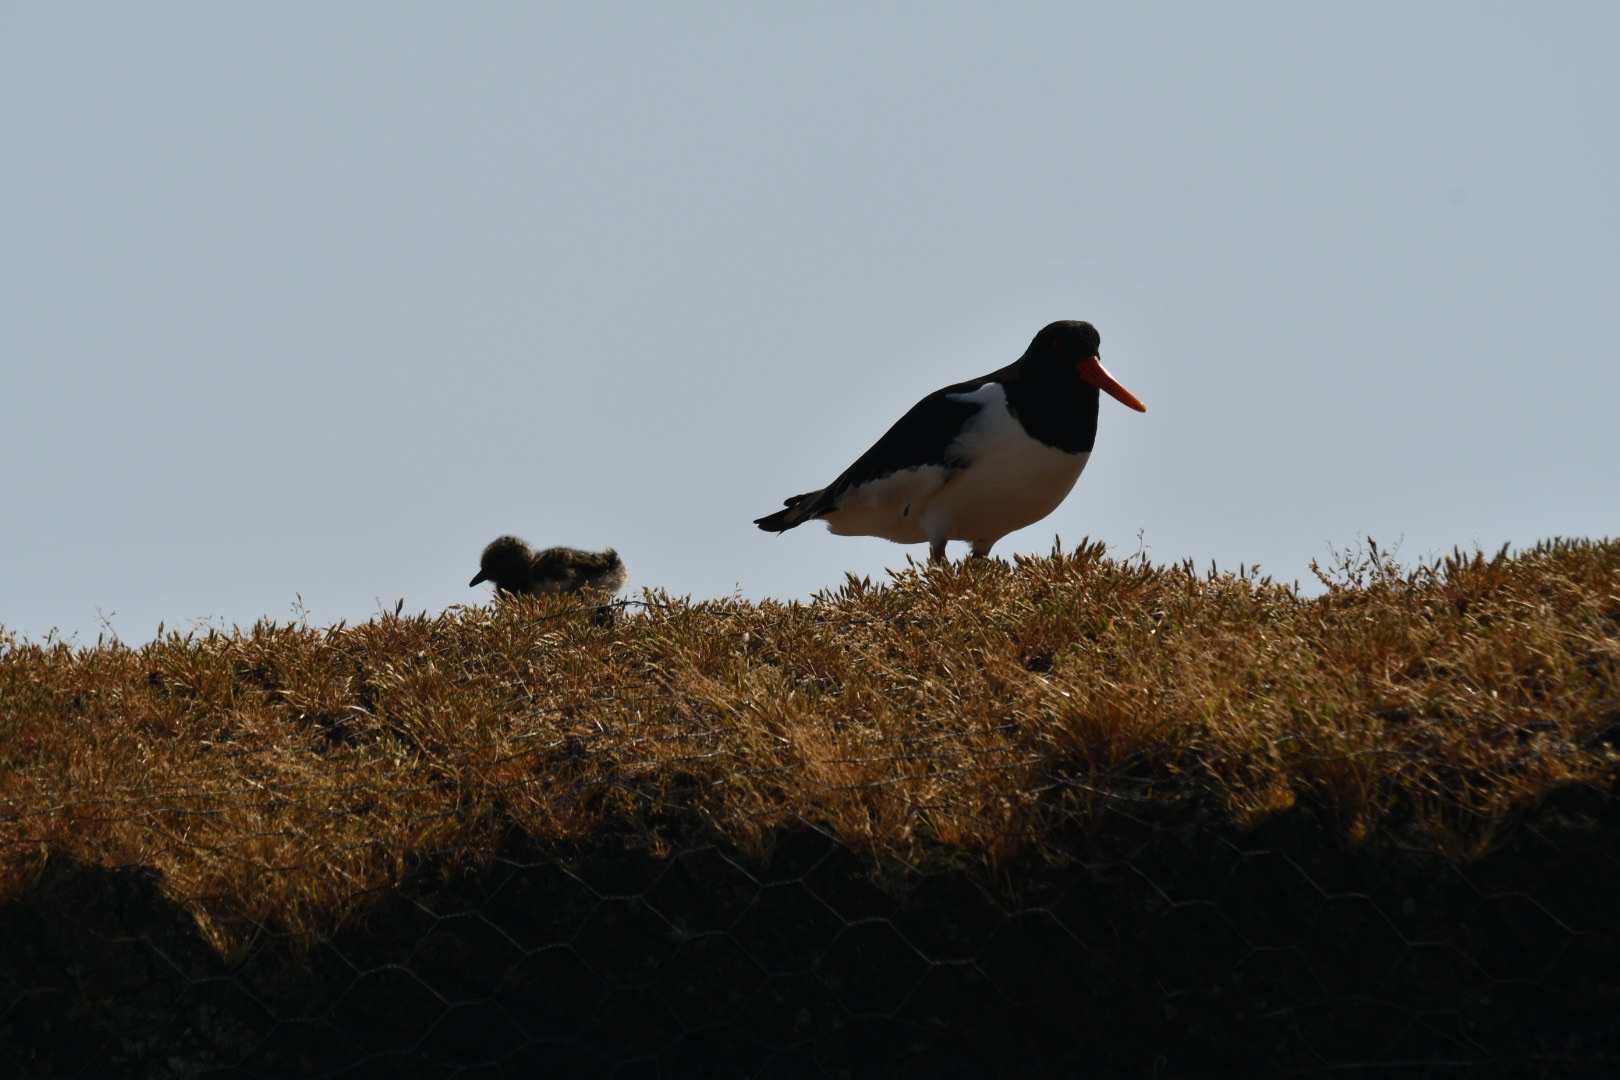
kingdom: Animalia
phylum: Chordata
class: Aves
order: Charadriiformes
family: Haematopodidae
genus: Haematopus
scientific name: Haematopus ostralegus
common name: Strandskade
